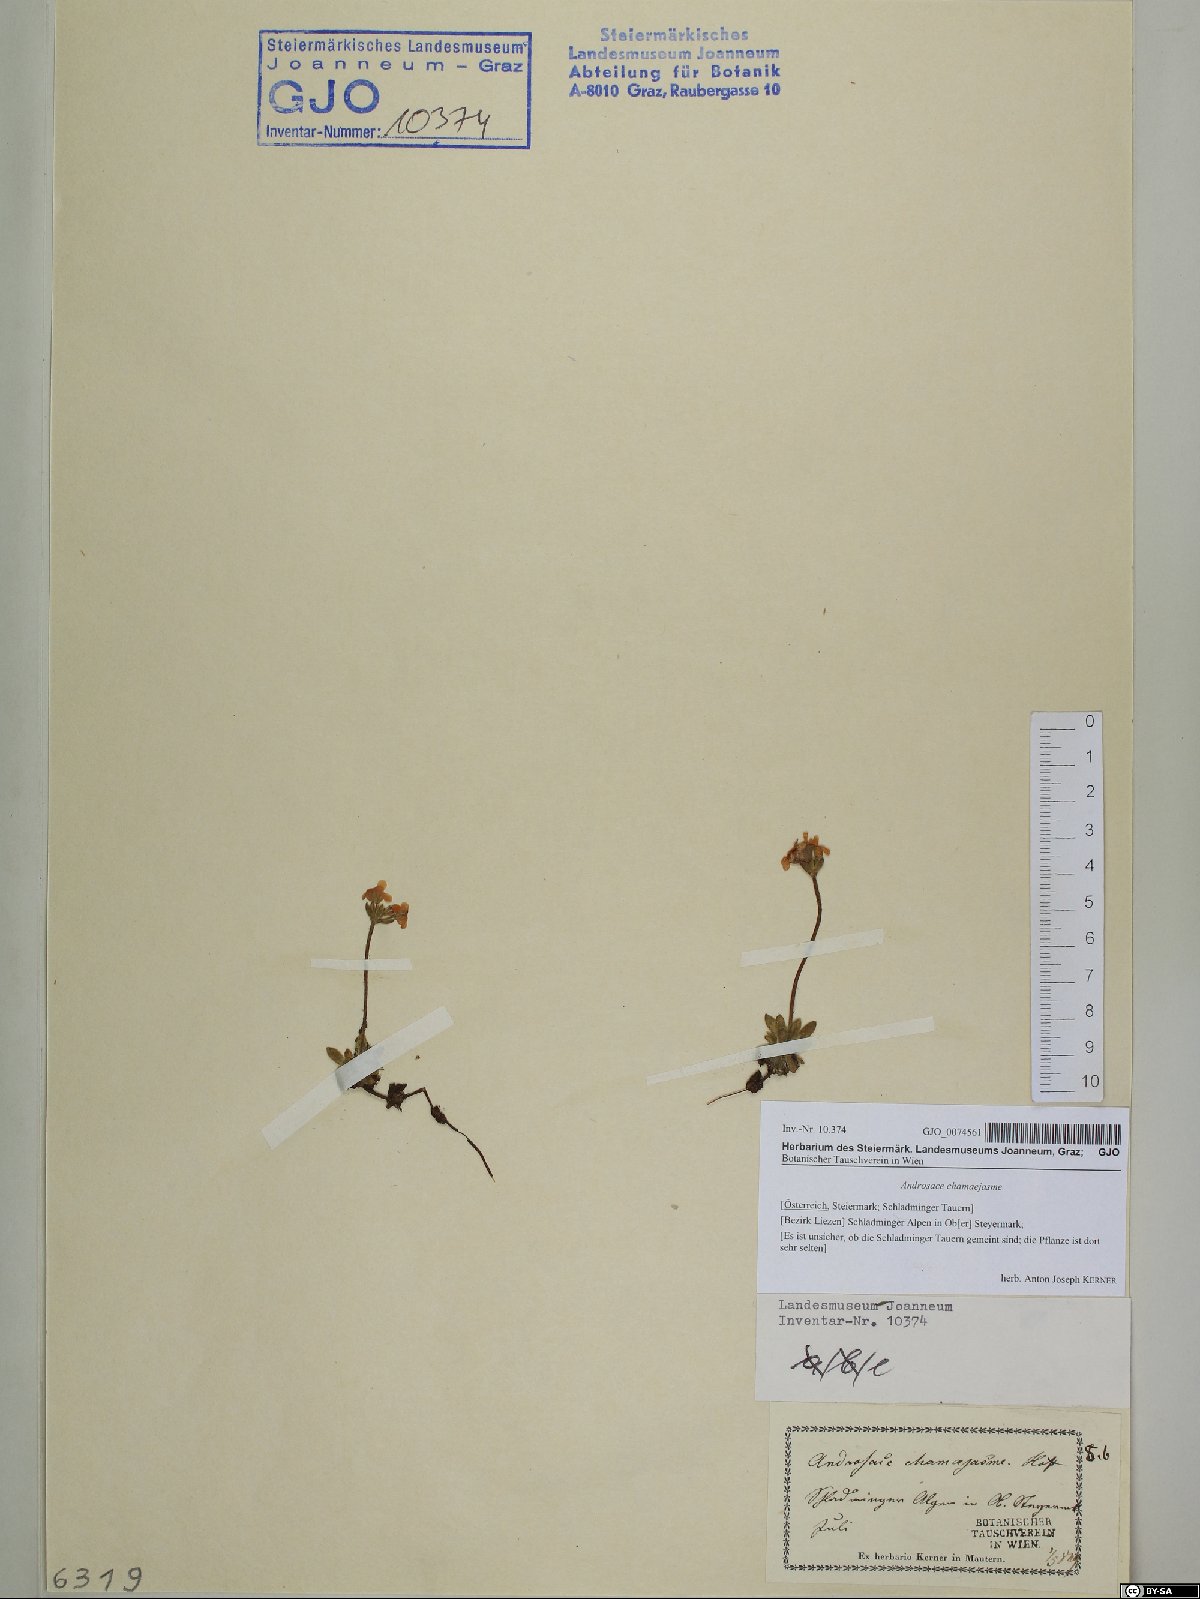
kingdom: Plantae
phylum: Tracheophyta
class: Magnoliopsida
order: Ericales
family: Primulaceae
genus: Androsace
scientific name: Androsace chamaejasme
